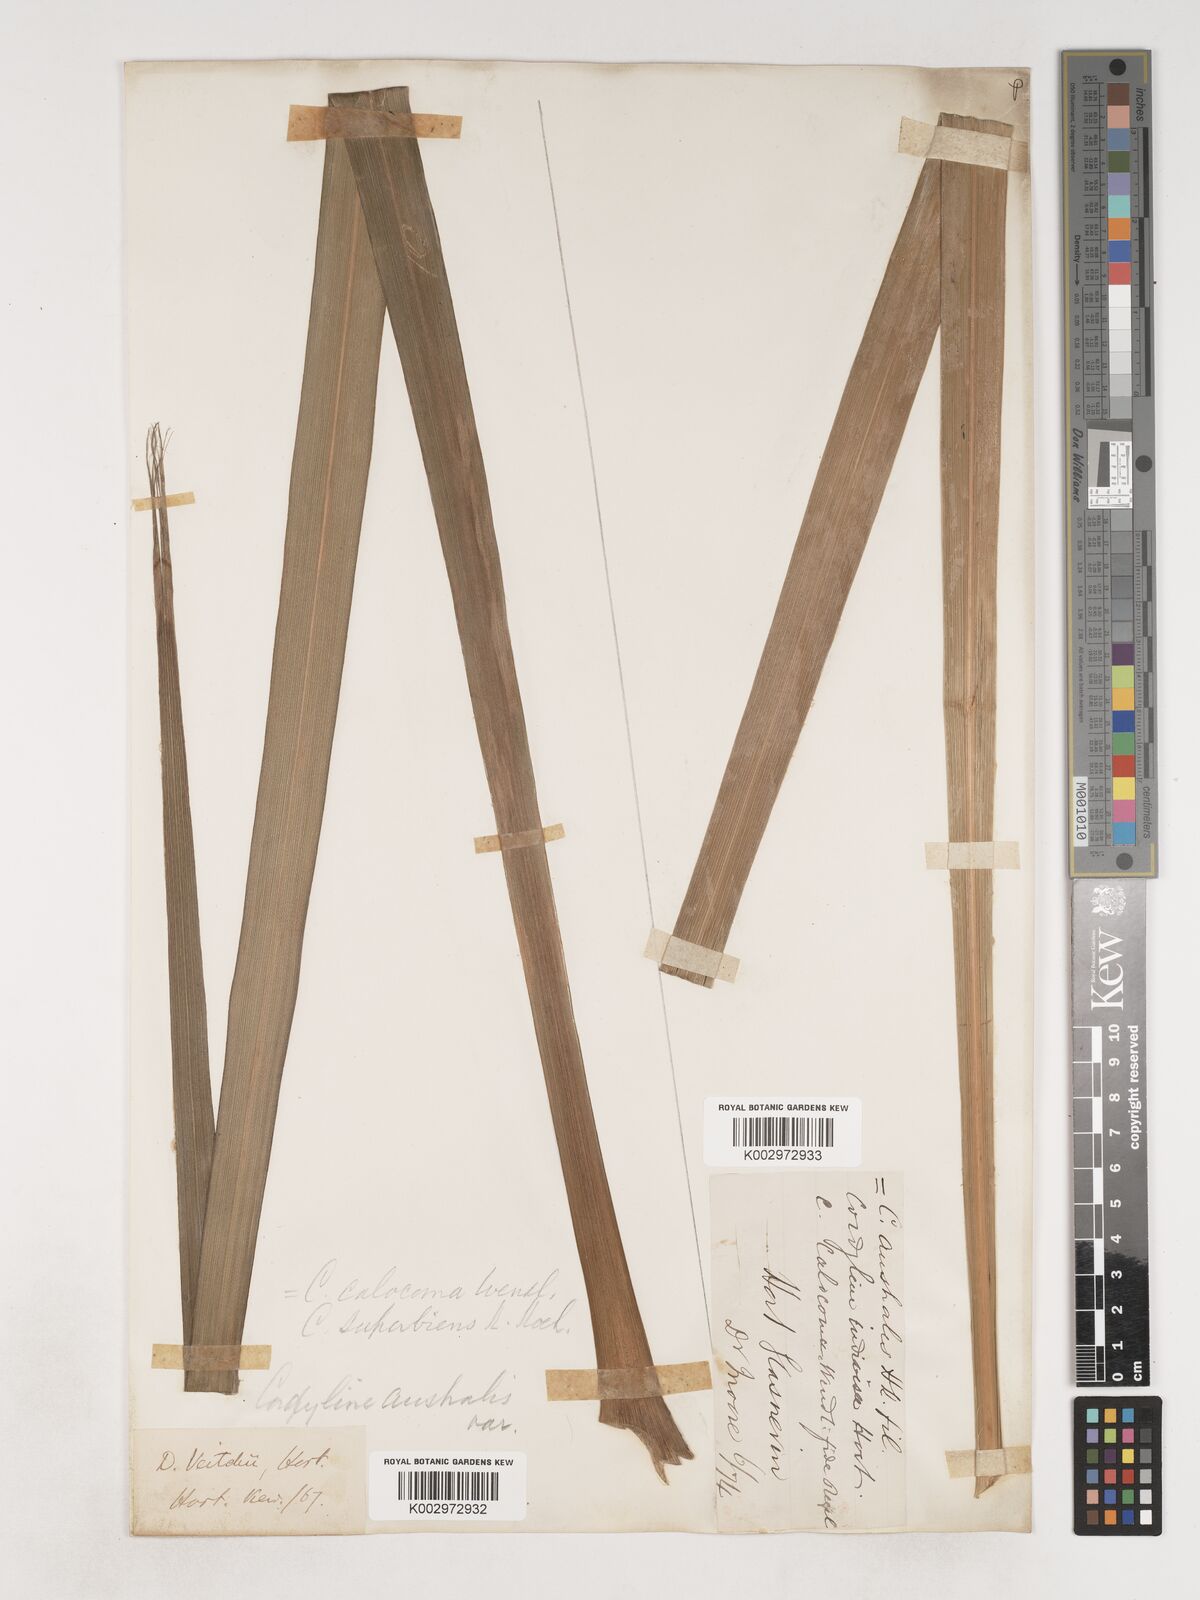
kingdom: Plantae
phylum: Tracheophyta
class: Liliopsida
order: Asparagales
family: Asparagaceae
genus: Cordyline
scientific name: Cordyline australis
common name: Cabbage-palm
